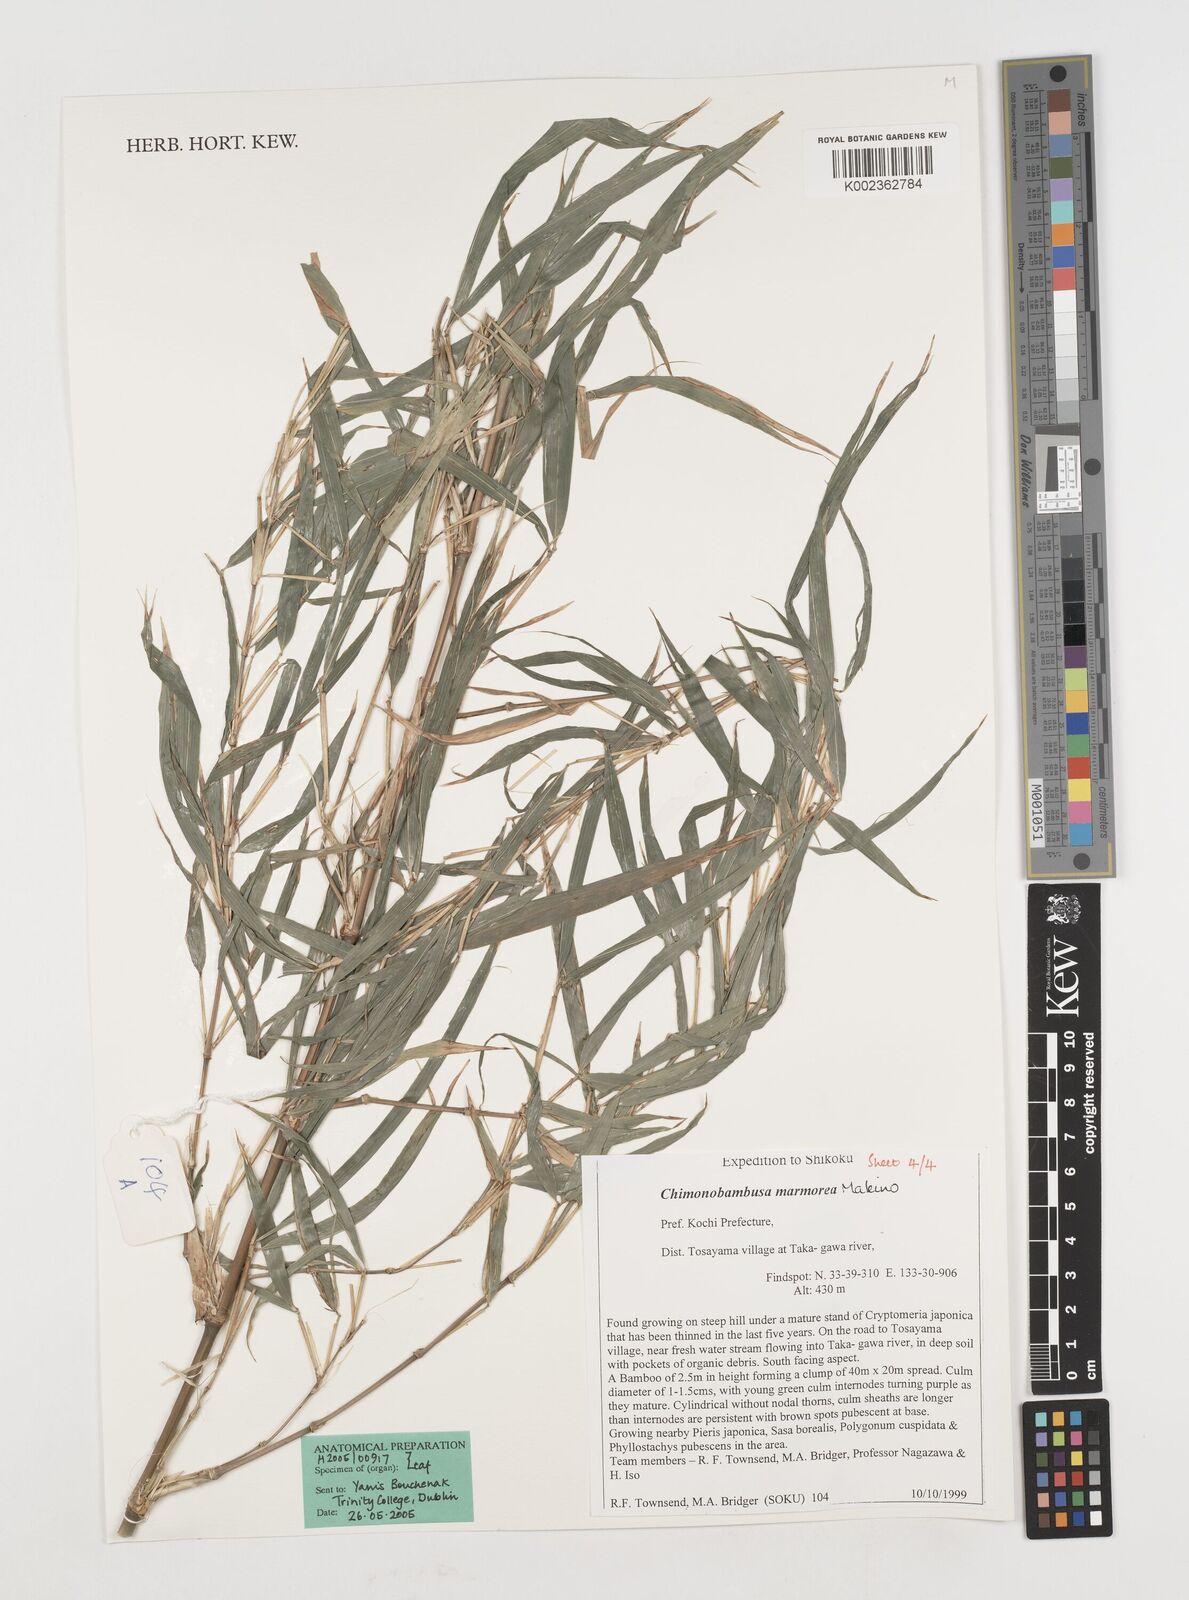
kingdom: Plantae
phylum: Tracheophyta
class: Liliopsida
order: Poales
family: Poaceae
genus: Chimonobambusa
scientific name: Chimonobambusa marmorea
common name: Marbled bamboo
